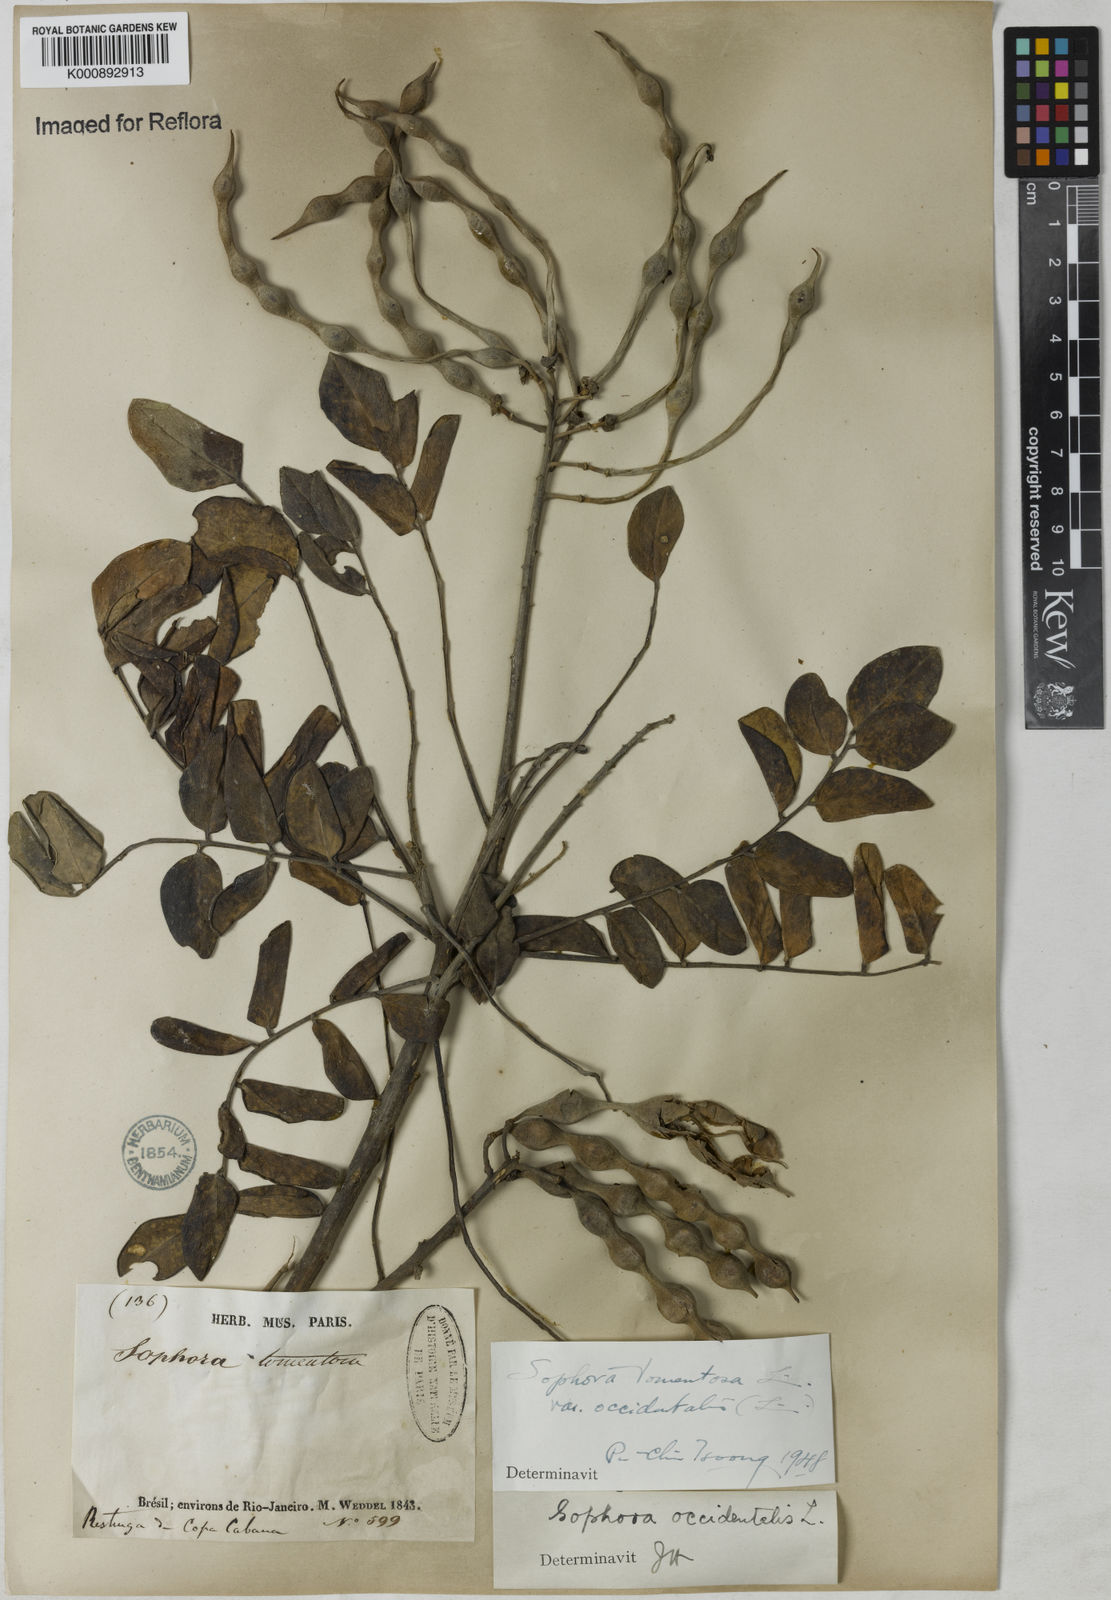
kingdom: Plantae
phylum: Tracheophyta
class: Magnoliopsida
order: Fabales
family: Fabaceae
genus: Sophora
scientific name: Sophora
